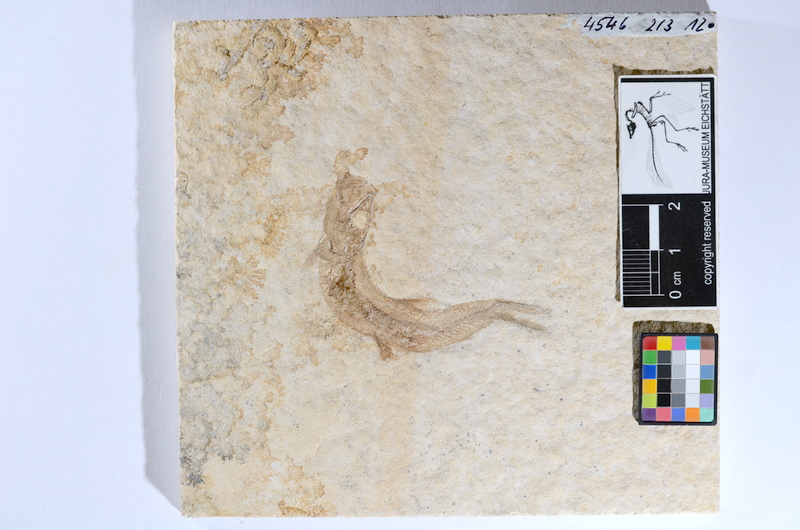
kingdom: Animalia
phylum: Chordata
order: Salmoniformes
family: Orthogonikleithridae
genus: Leptolepides
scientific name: Leptolepides sprattiformis
